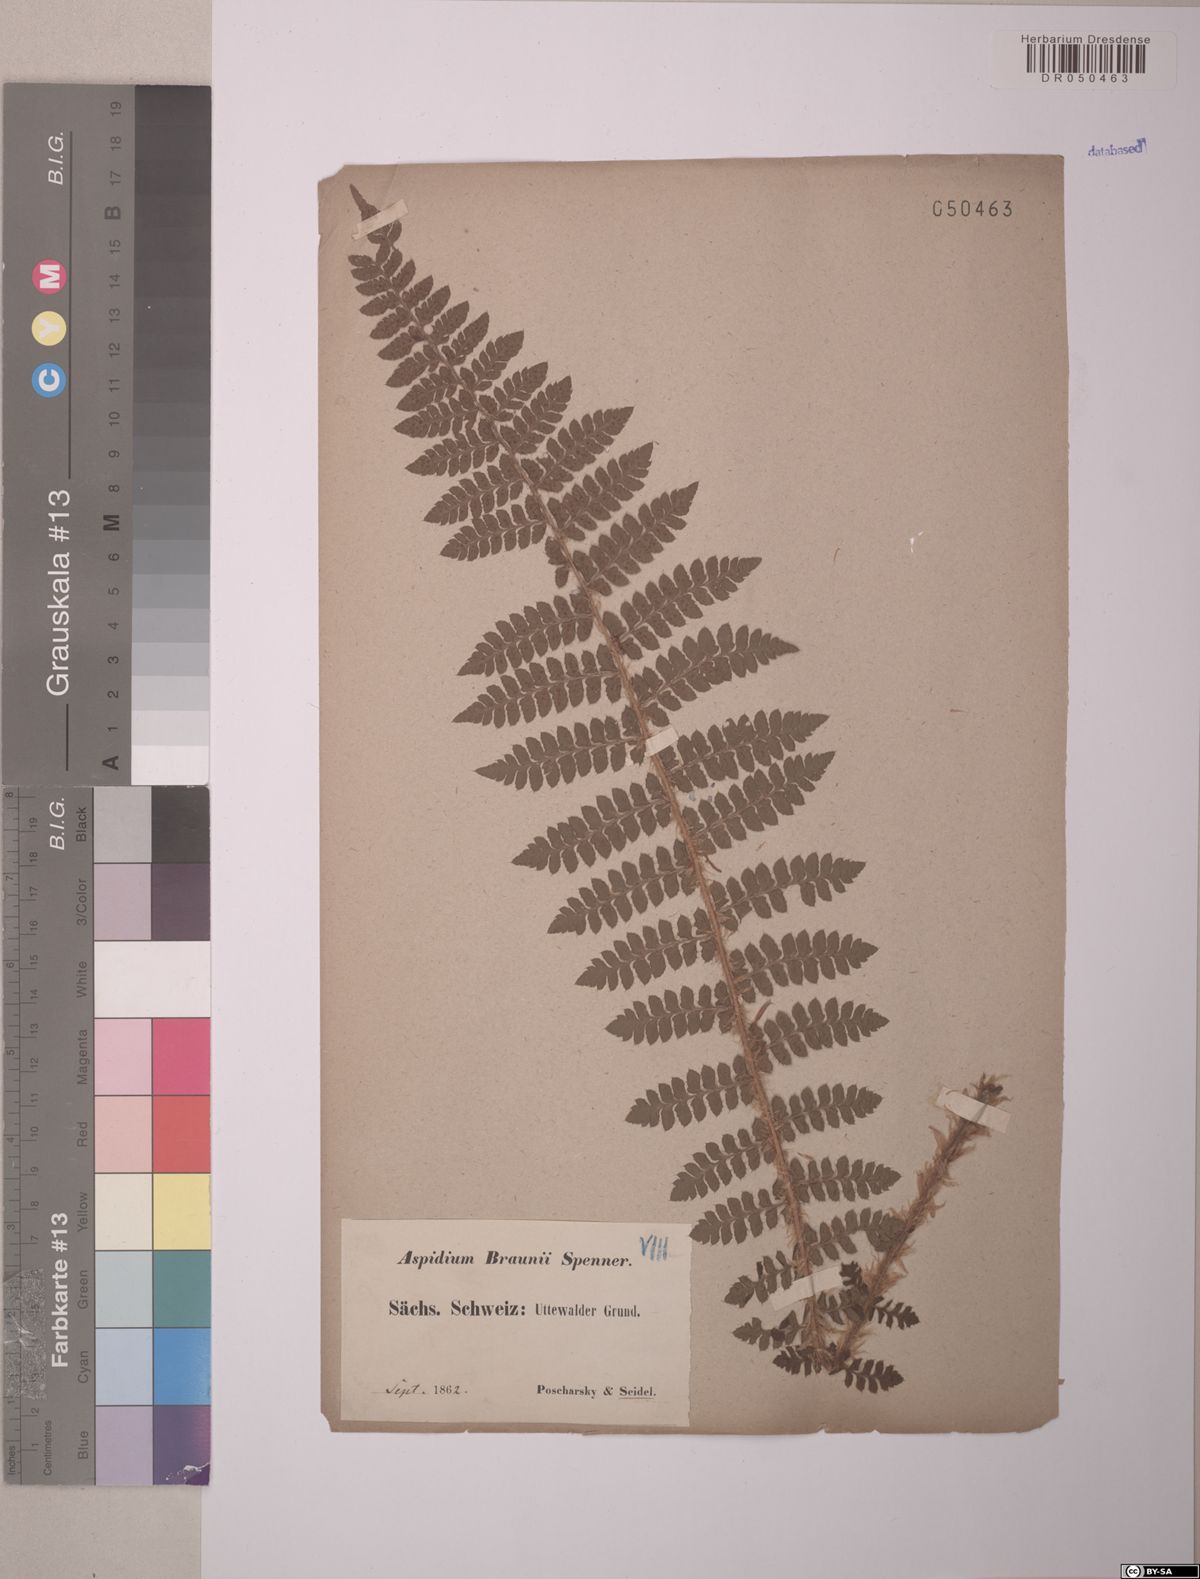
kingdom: Plantae
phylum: Tracheophyta
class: Polypodiopsida
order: Polypodiales
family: Dryopteridaceae
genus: Polystichum
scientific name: Polystichum braunii
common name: Braun's holly fern
